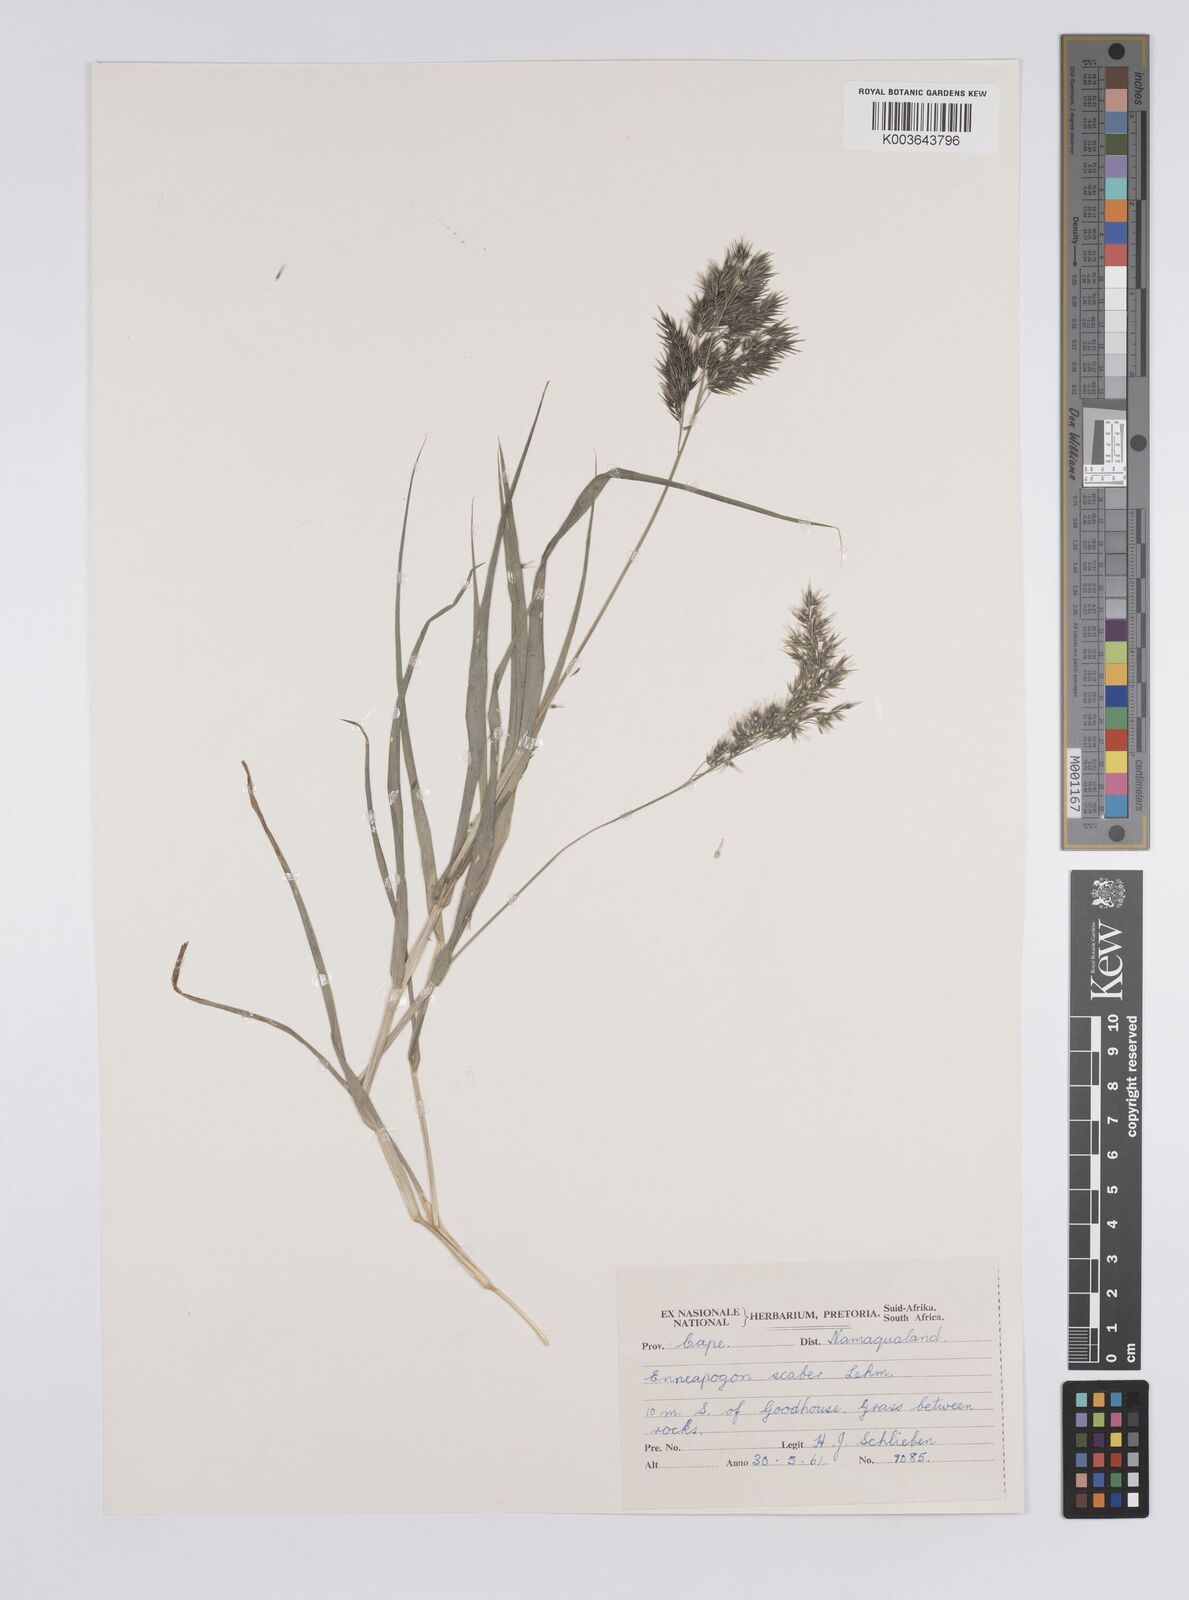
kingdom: Plantae
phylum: Tracheophyta
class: Liliopsida
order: Poales
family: Poaceae
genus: Enneapogon
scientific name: Enneapogon scaber
